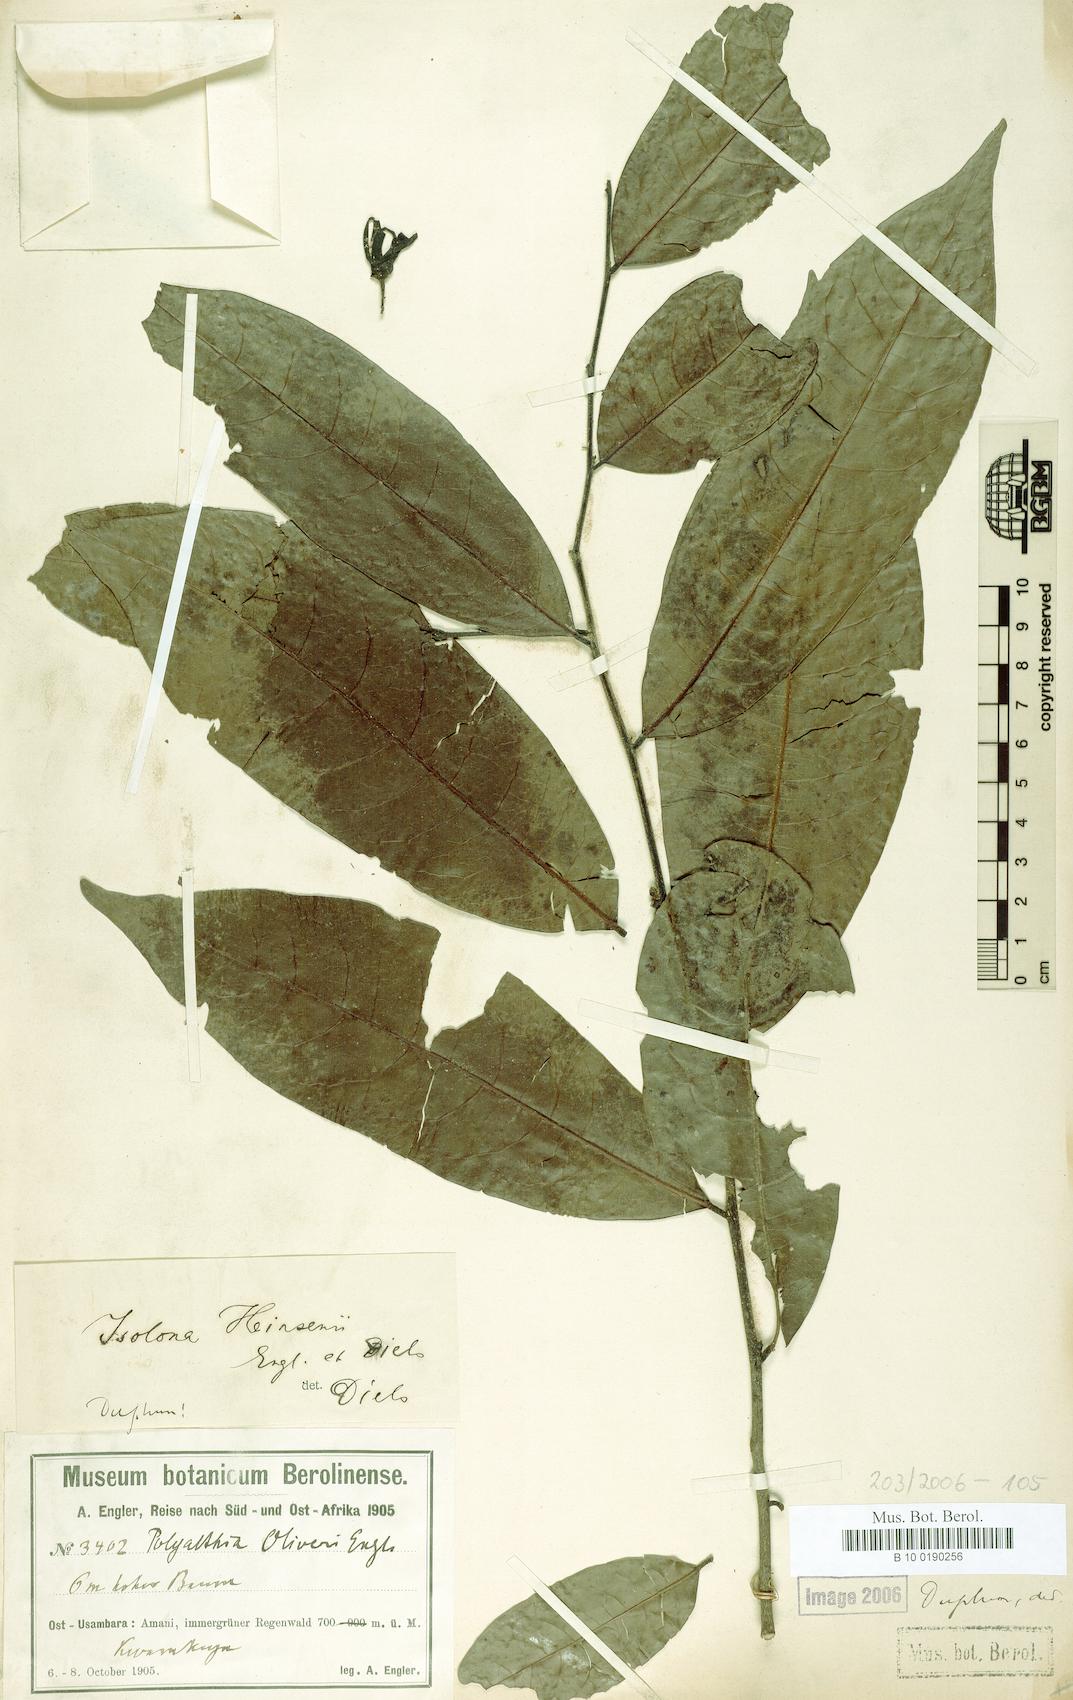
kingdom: Plantae
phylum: Tracheophyta
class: Magnoliopsida
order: Magnoliales
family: Annonaceae
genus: Isolona
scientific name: Isolona heinsenii
